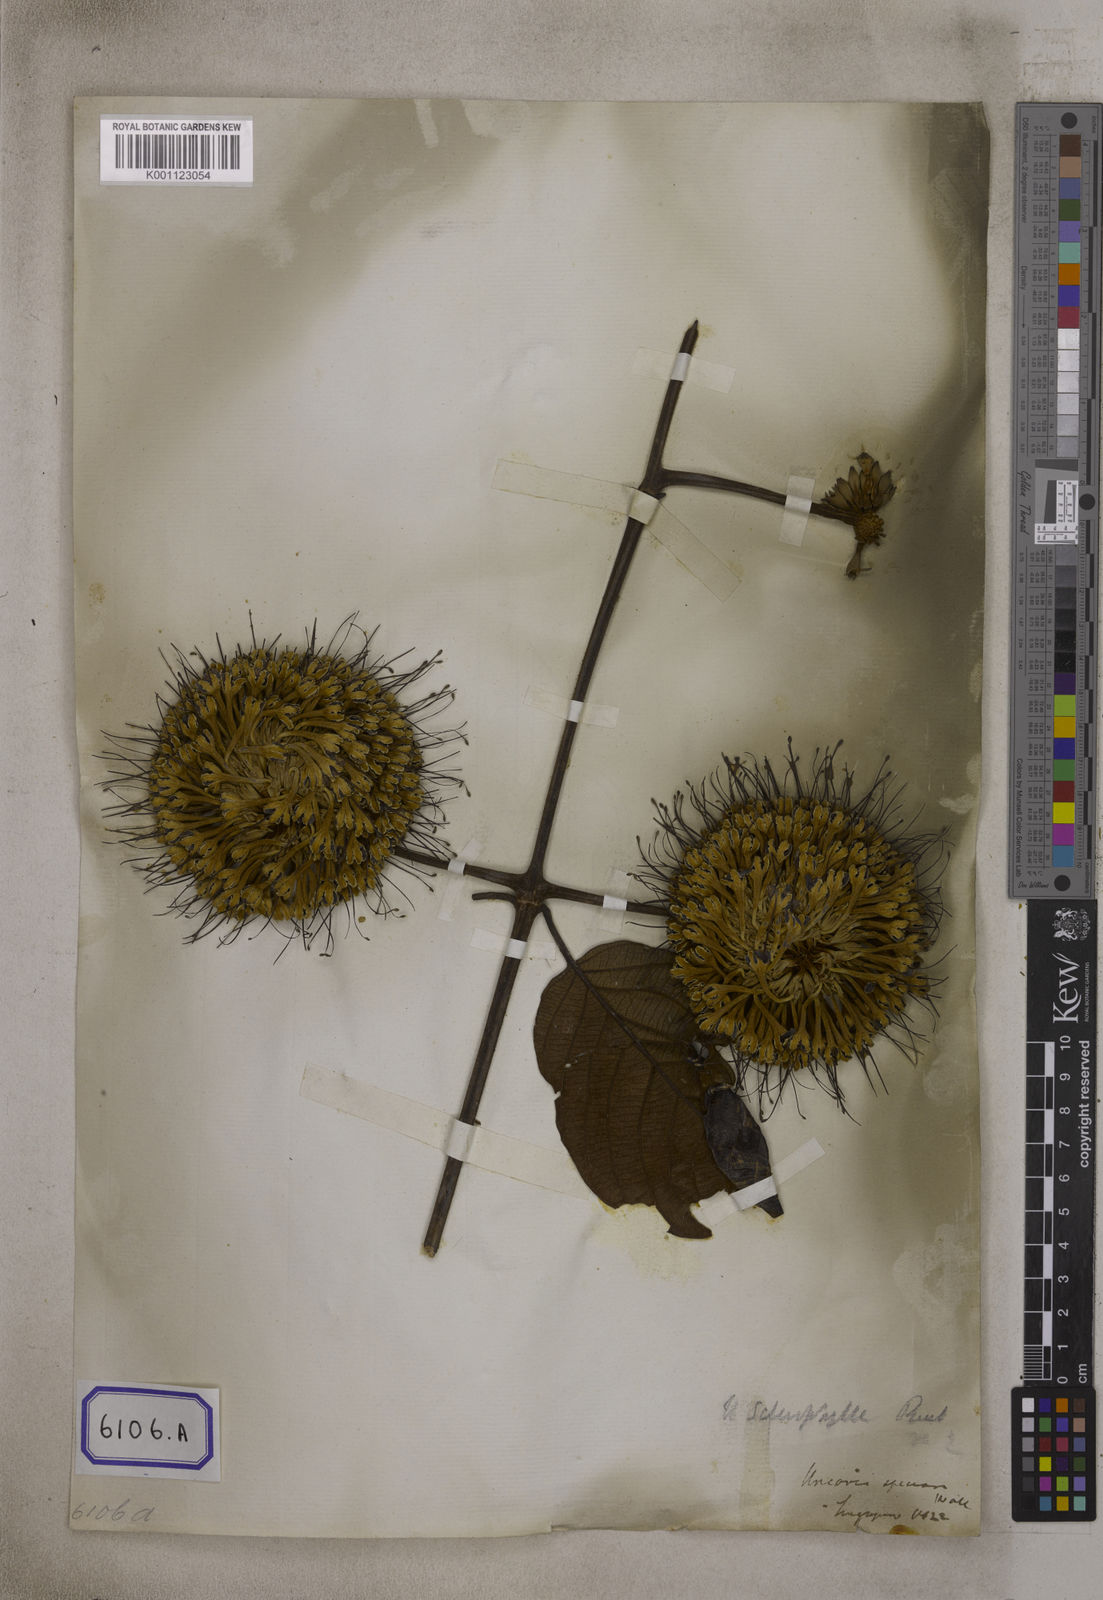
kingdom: Plantae
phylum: Tracheophyta
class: Magnoliopsida
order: Gentianales
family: Rubiaceae
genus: Uncaria
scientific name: Uncaria cordata
